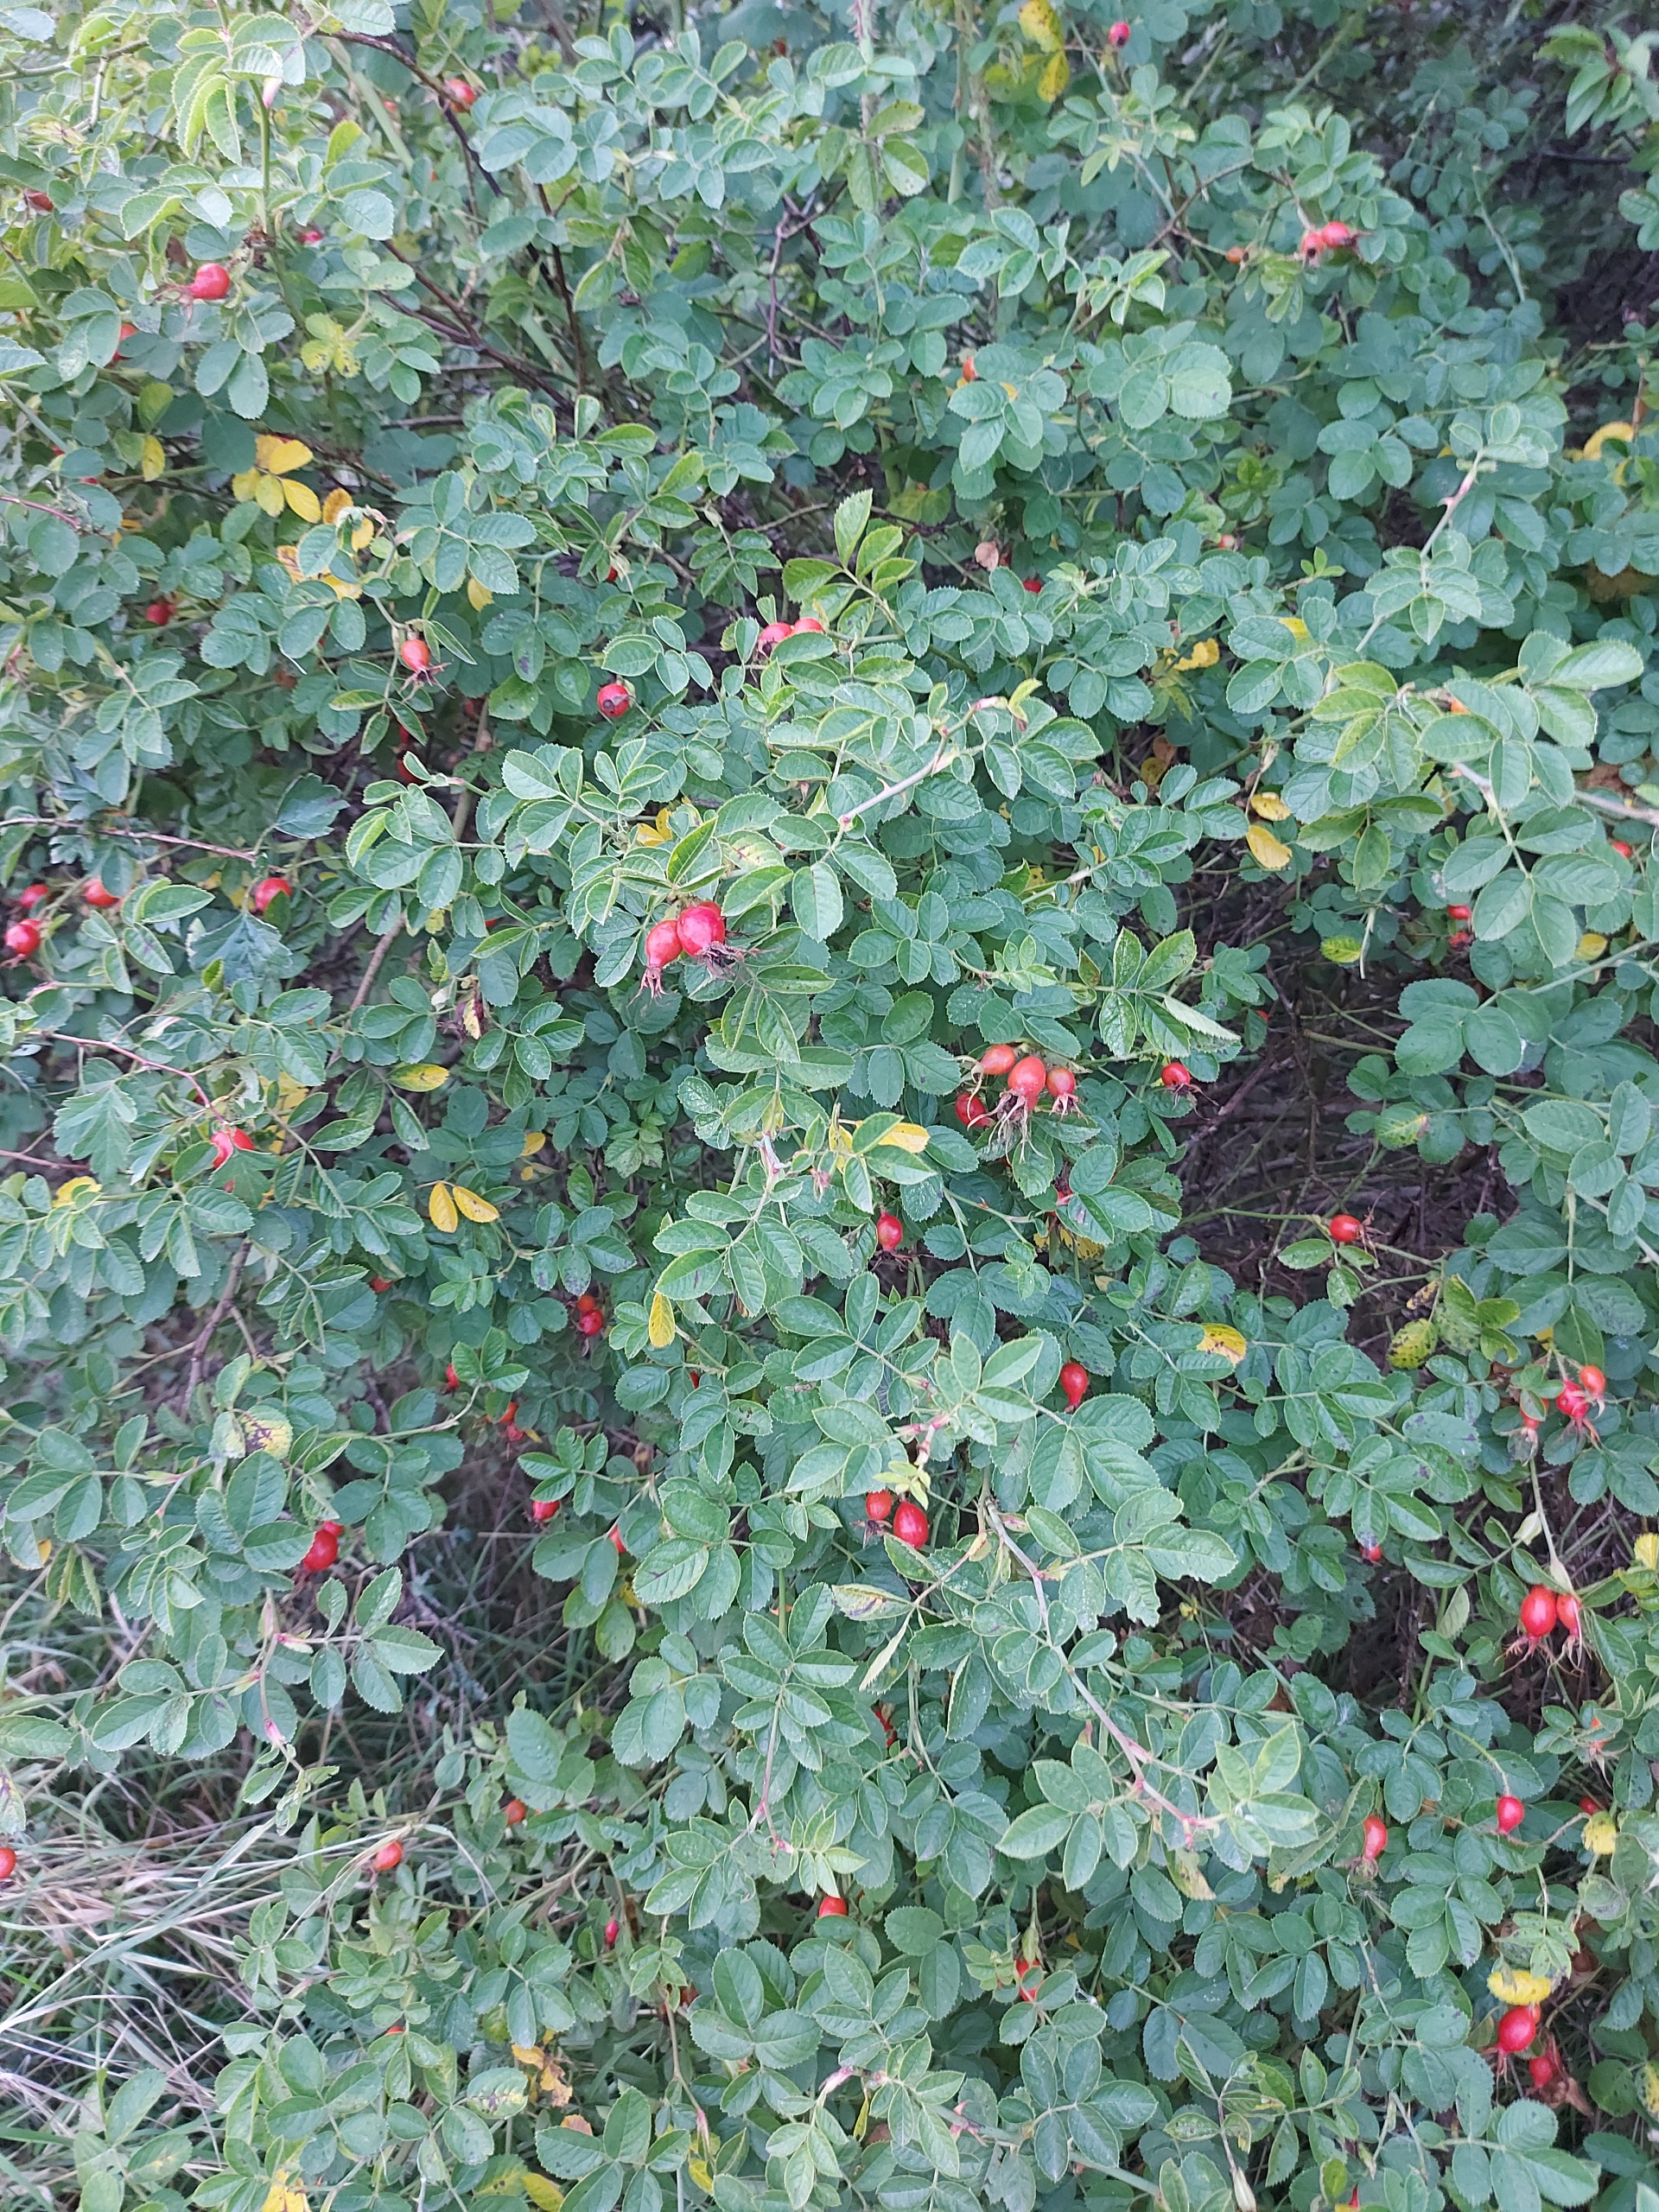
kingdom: Plantae
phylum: Tracheophyta
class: Magnoliopsida
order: Rosales
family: Rosaceae
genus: Rosa
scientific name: Rosa rubiginosa
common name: Æble-rose
